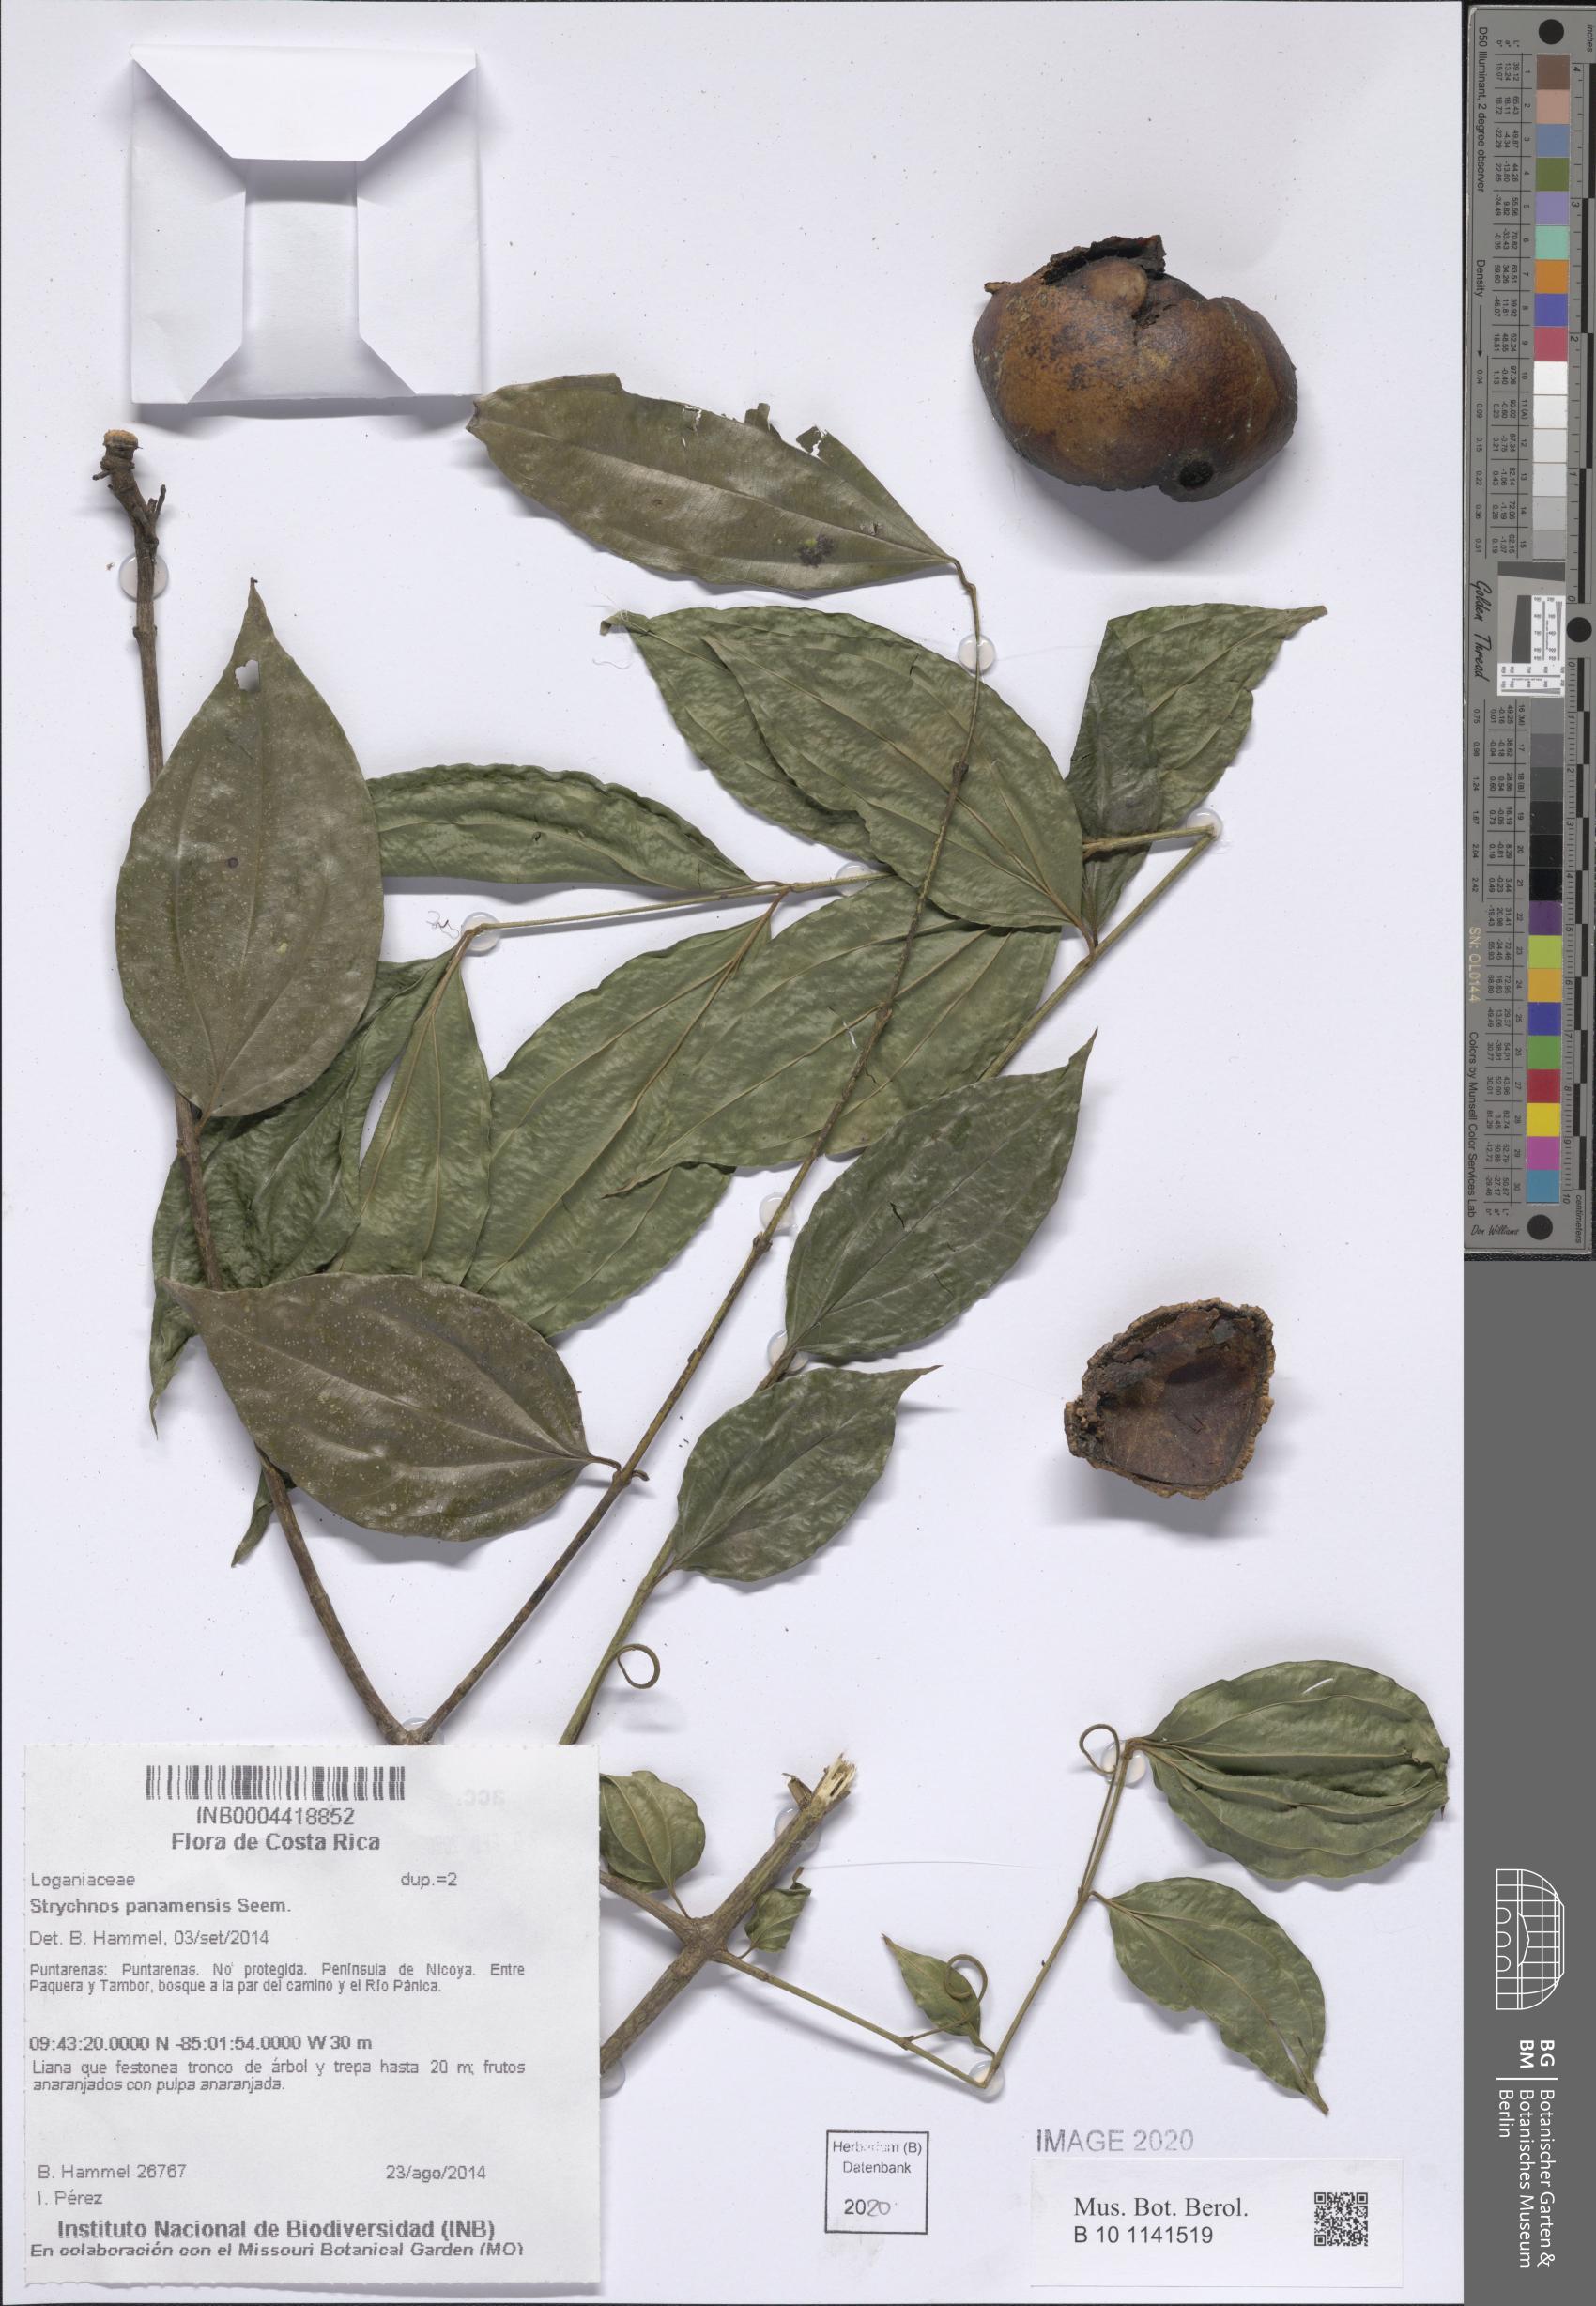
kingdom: Plantae
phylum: Tracheophyta
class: Magnoliopsida
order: Gentianales
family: Loganiaceae
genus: Strychnos
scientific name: Strychnos panamensis
